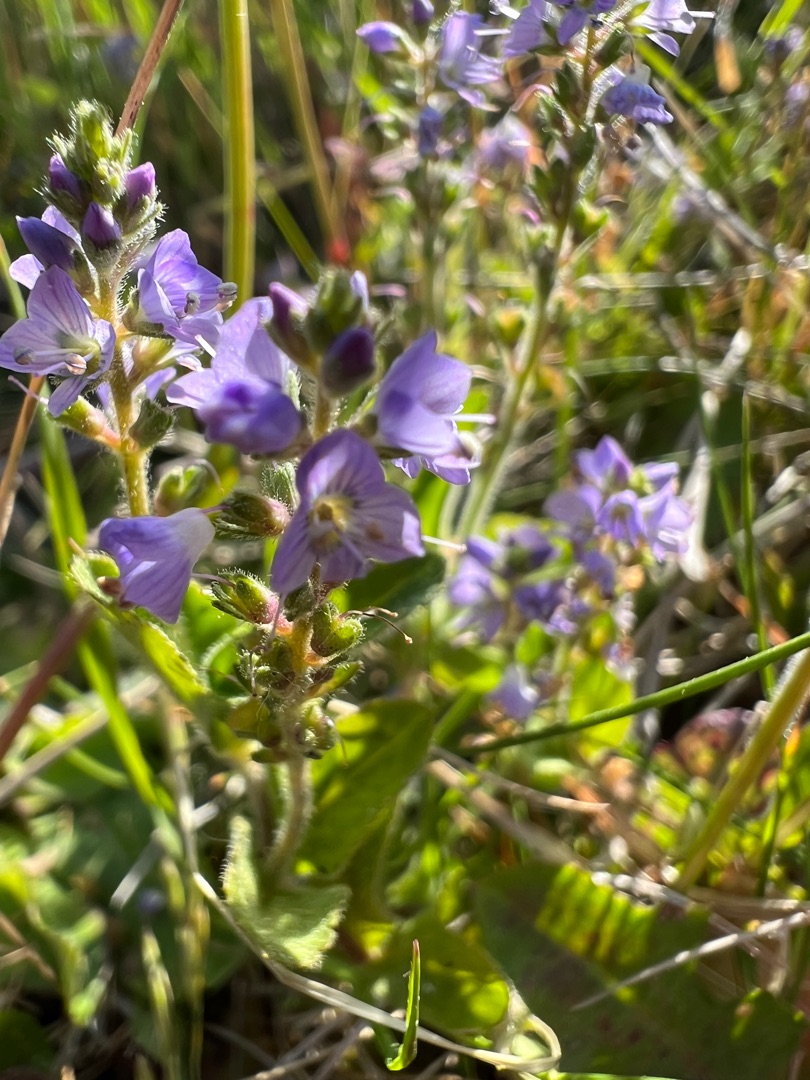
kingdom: Plantae
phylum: Tracheophyta
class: Magnoliopsida
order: Lamiales
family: Plantaginaceae
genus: Veronica
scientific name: Veronica officinalis
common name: Læge-ærenpris
